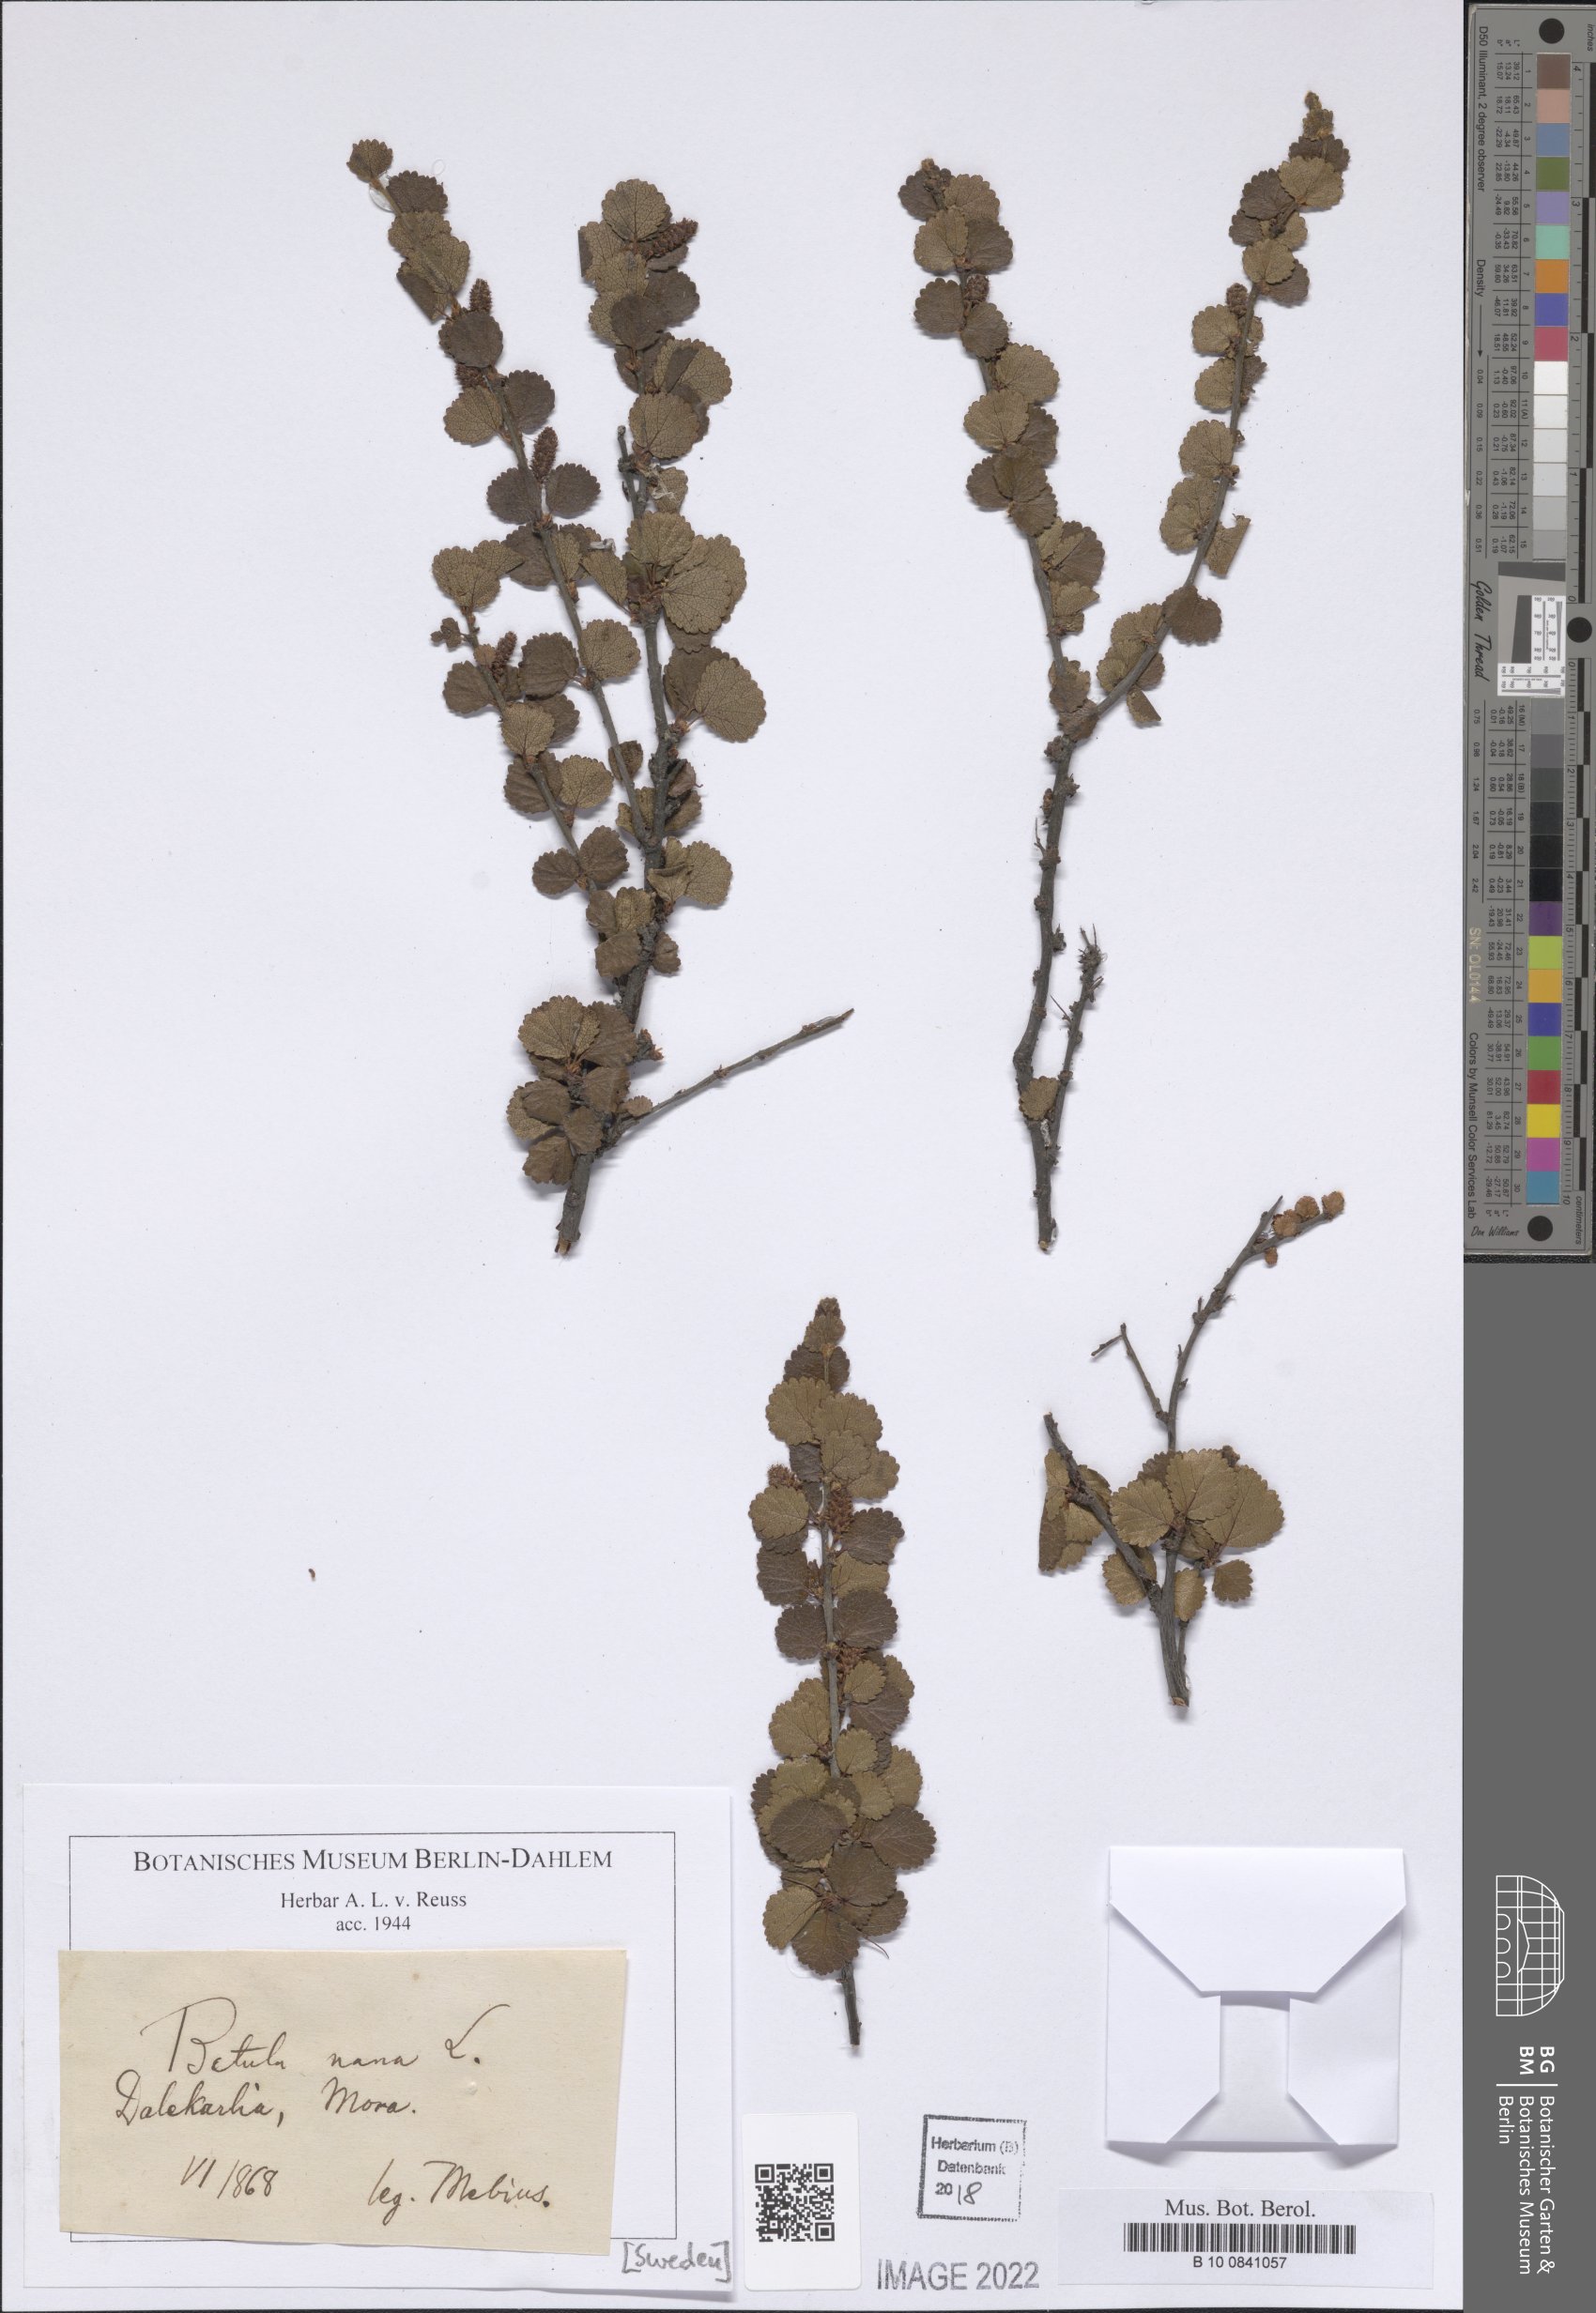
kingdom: Plantae
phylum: Tracheophyta
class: Magnoliopsida
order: Fagales
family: Betulaceae
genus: Betula
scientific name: Betula nana
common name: Arctic dwarf birch
